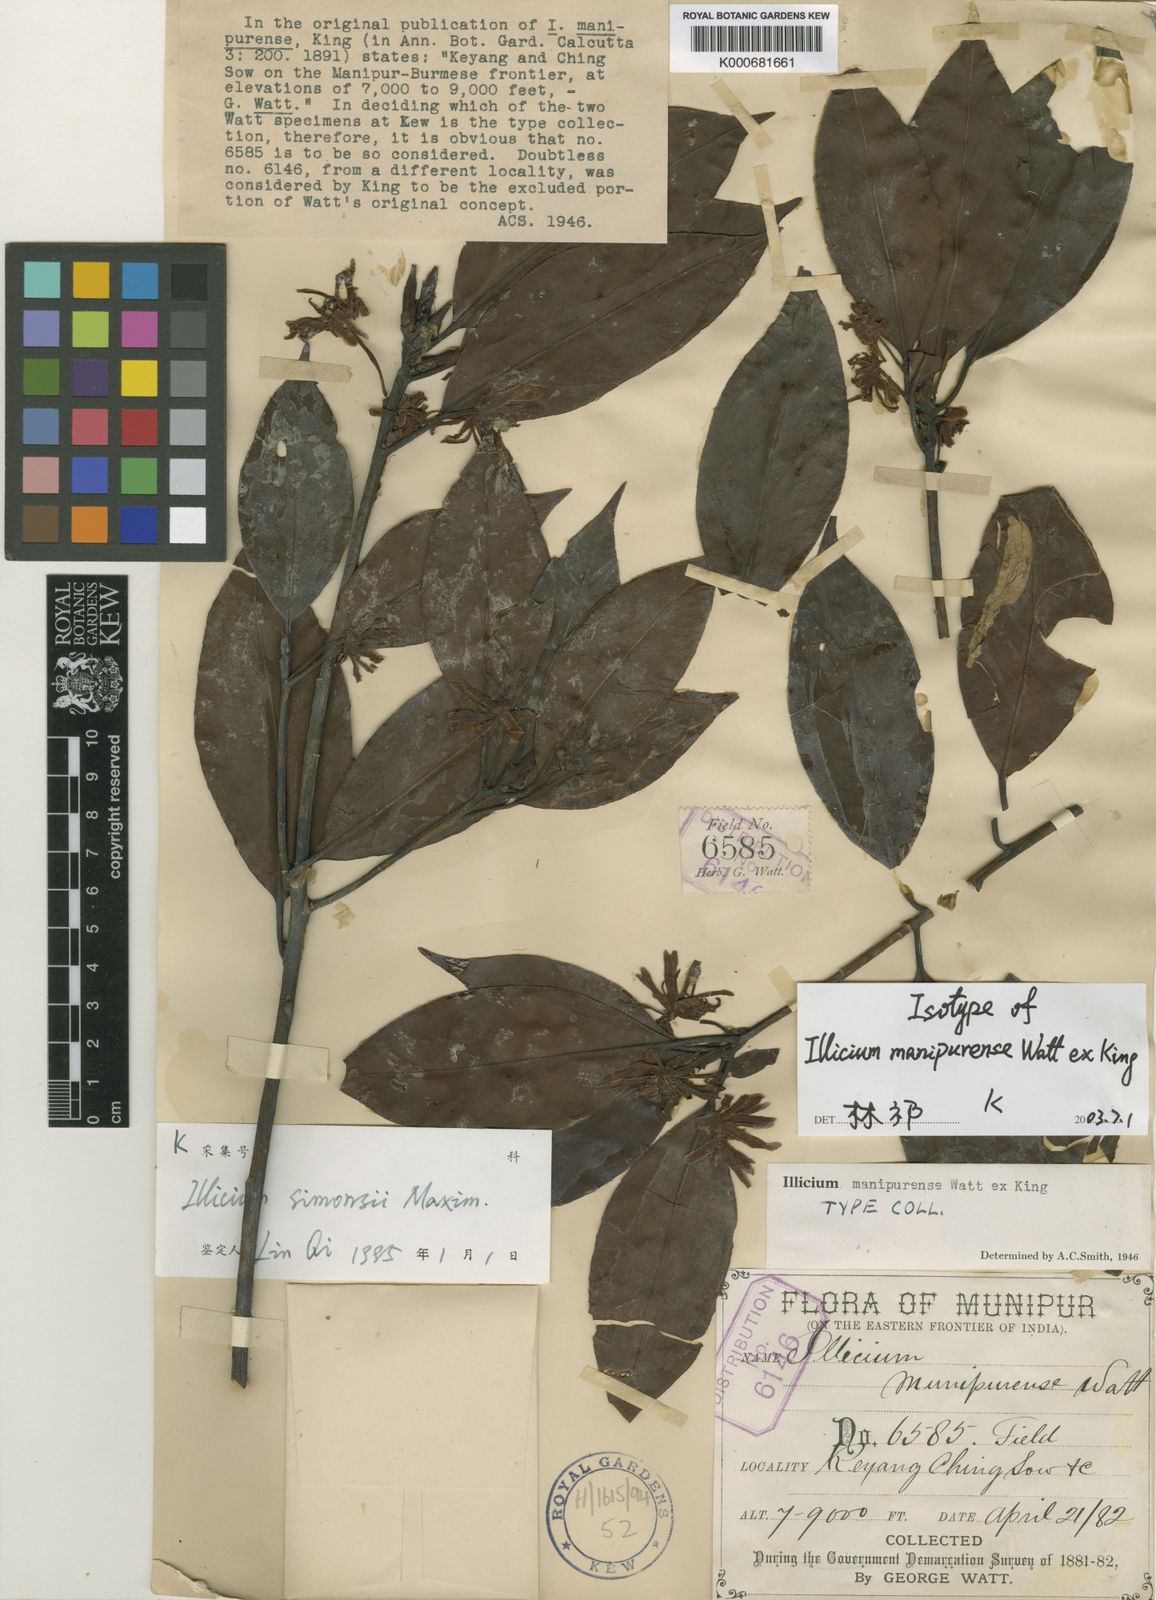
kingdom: Plantae
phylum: Tracheophyta
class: Magnoliopsida
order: Austrobaileyales
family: Schisandraceae
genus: Illicium
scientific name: Illicium simonsii
